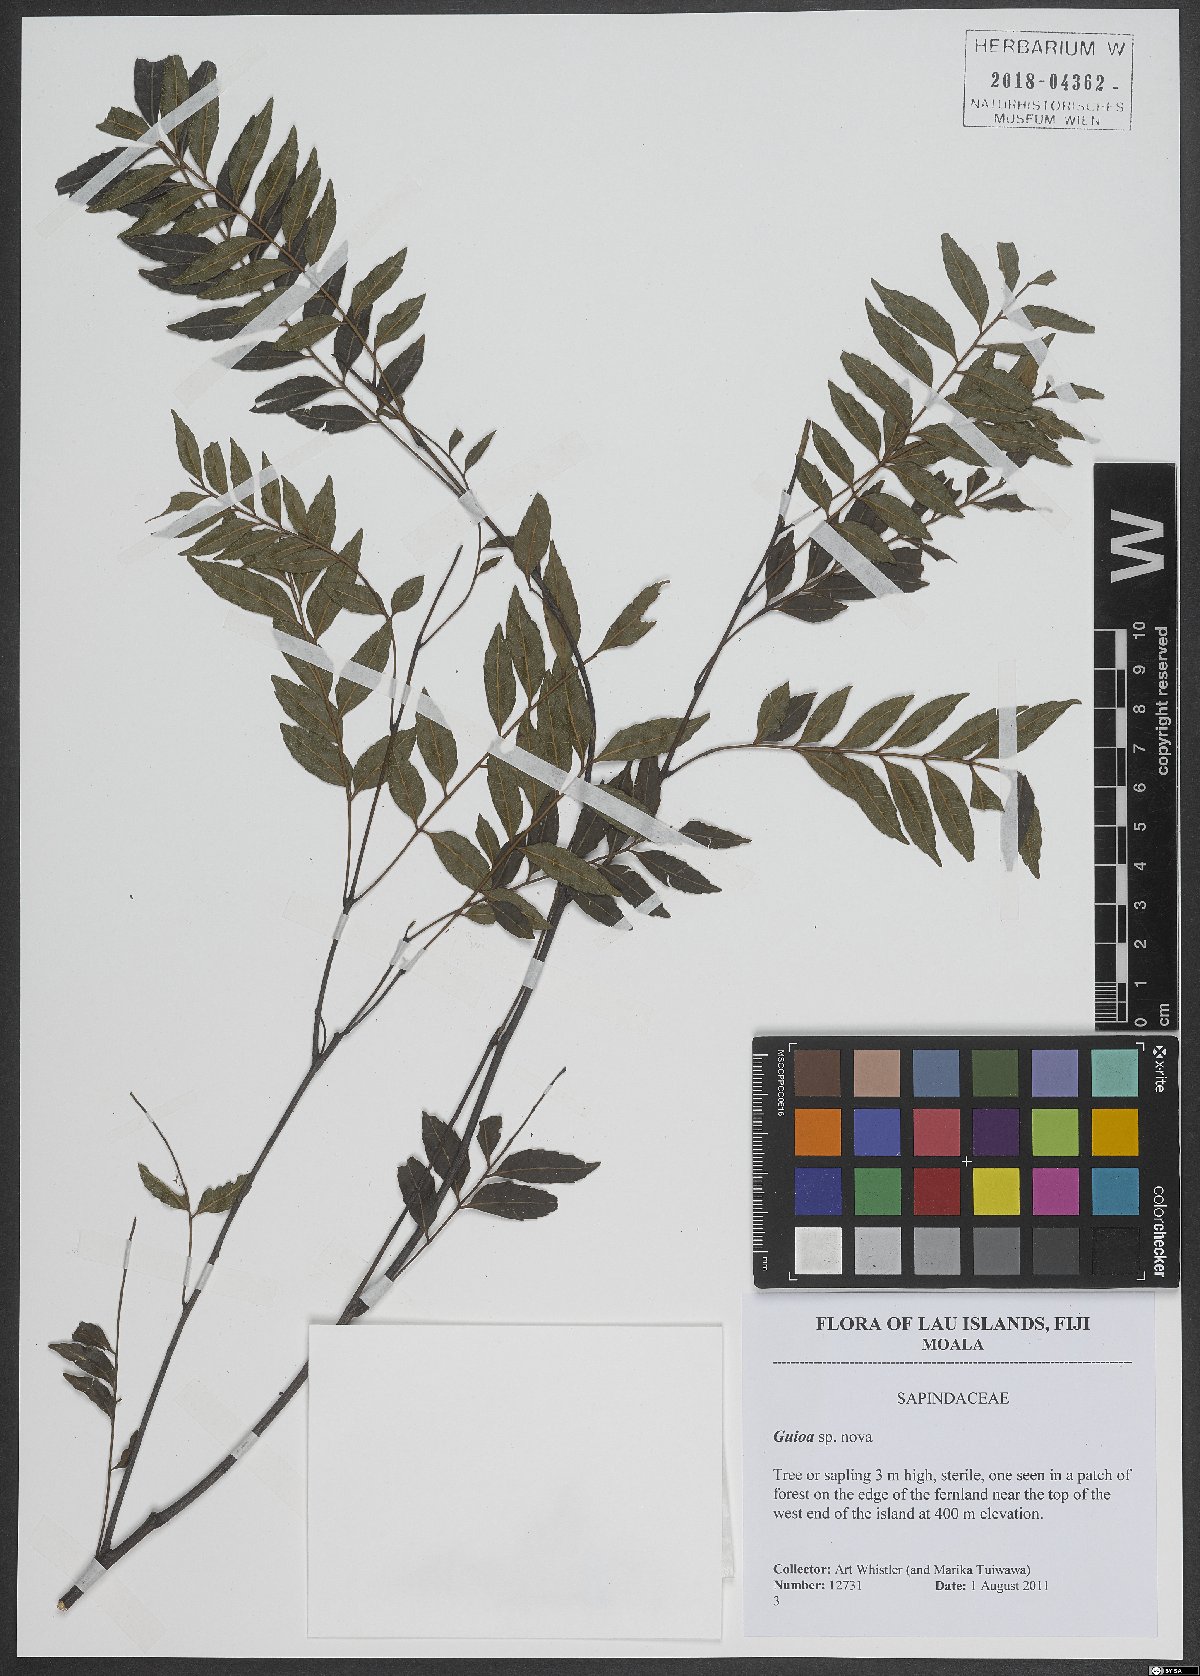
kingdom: Plantae
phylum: Tracheophyta
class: Magnoliopsida
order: Sapindales
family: Sapindaceae
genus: Guioa
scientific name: Guioa
